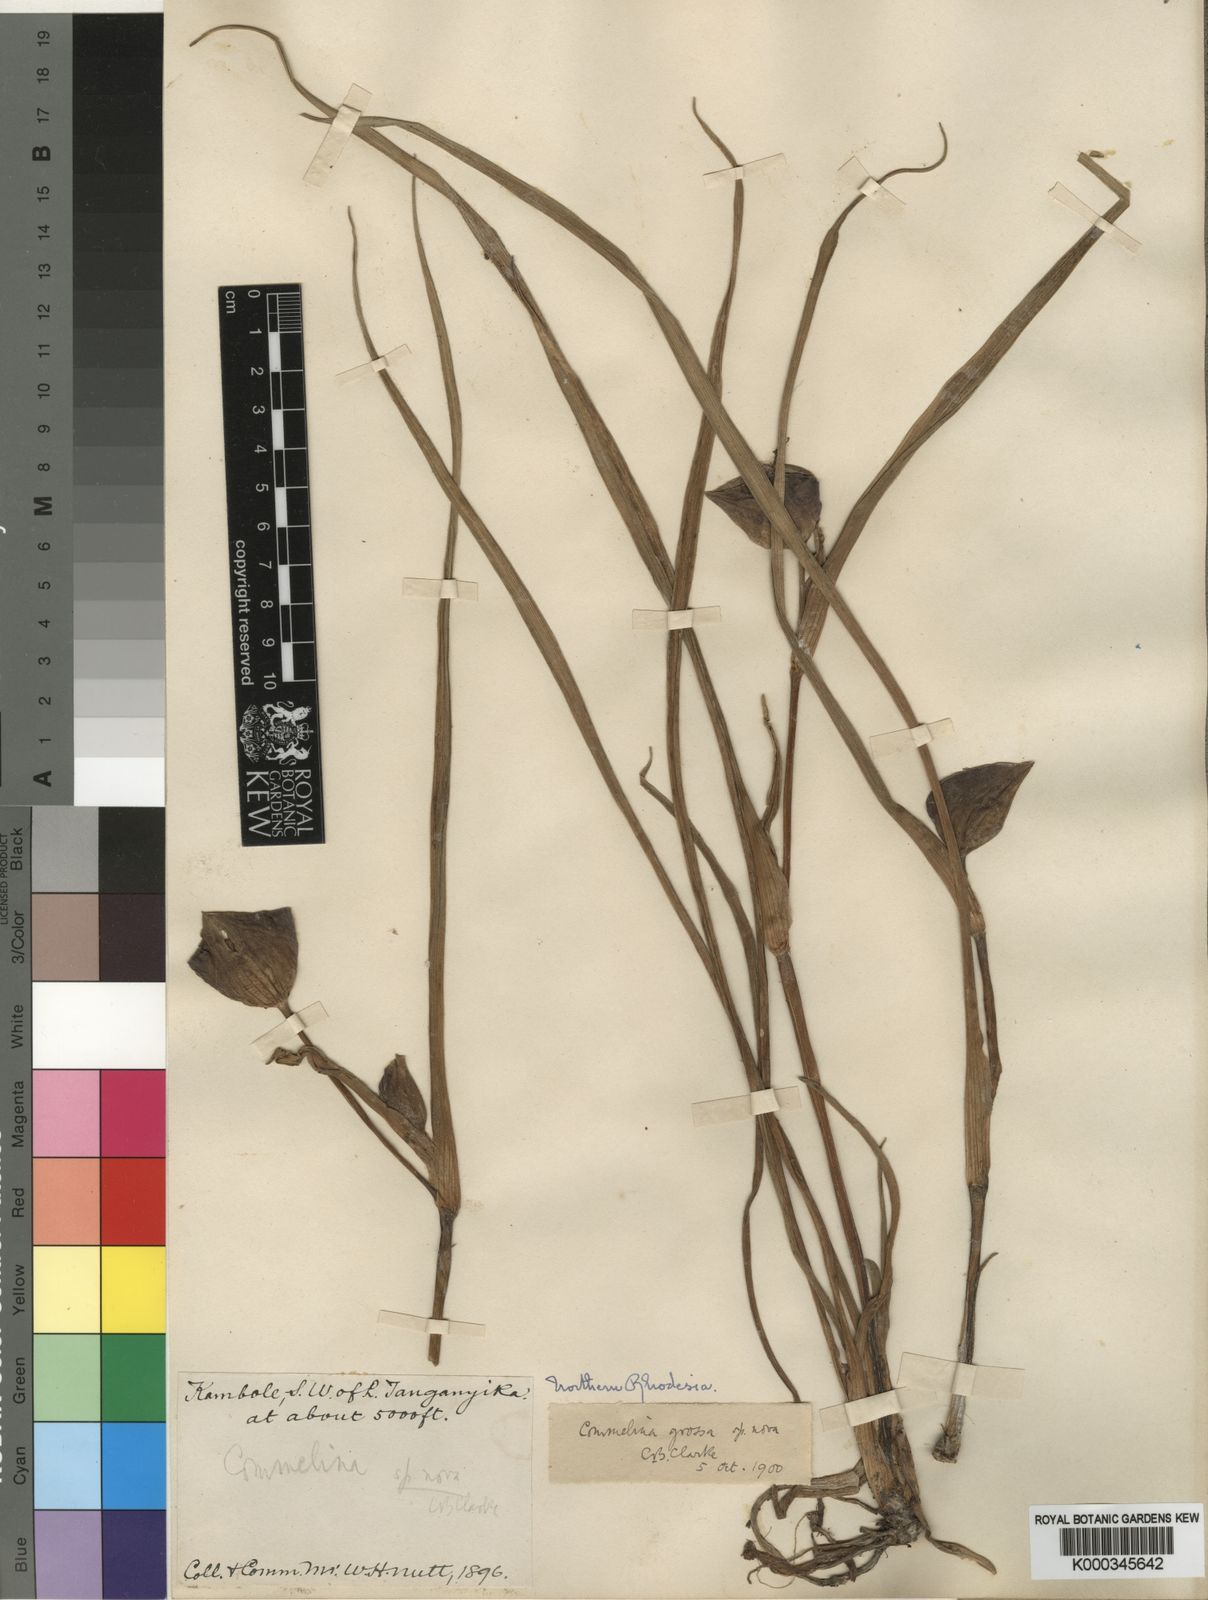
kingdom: Plantae
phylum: Tracheophyta
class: Liliopsida
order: Commelinales
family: Commelinaceae
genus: Commelina
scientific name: Commelina grossa
